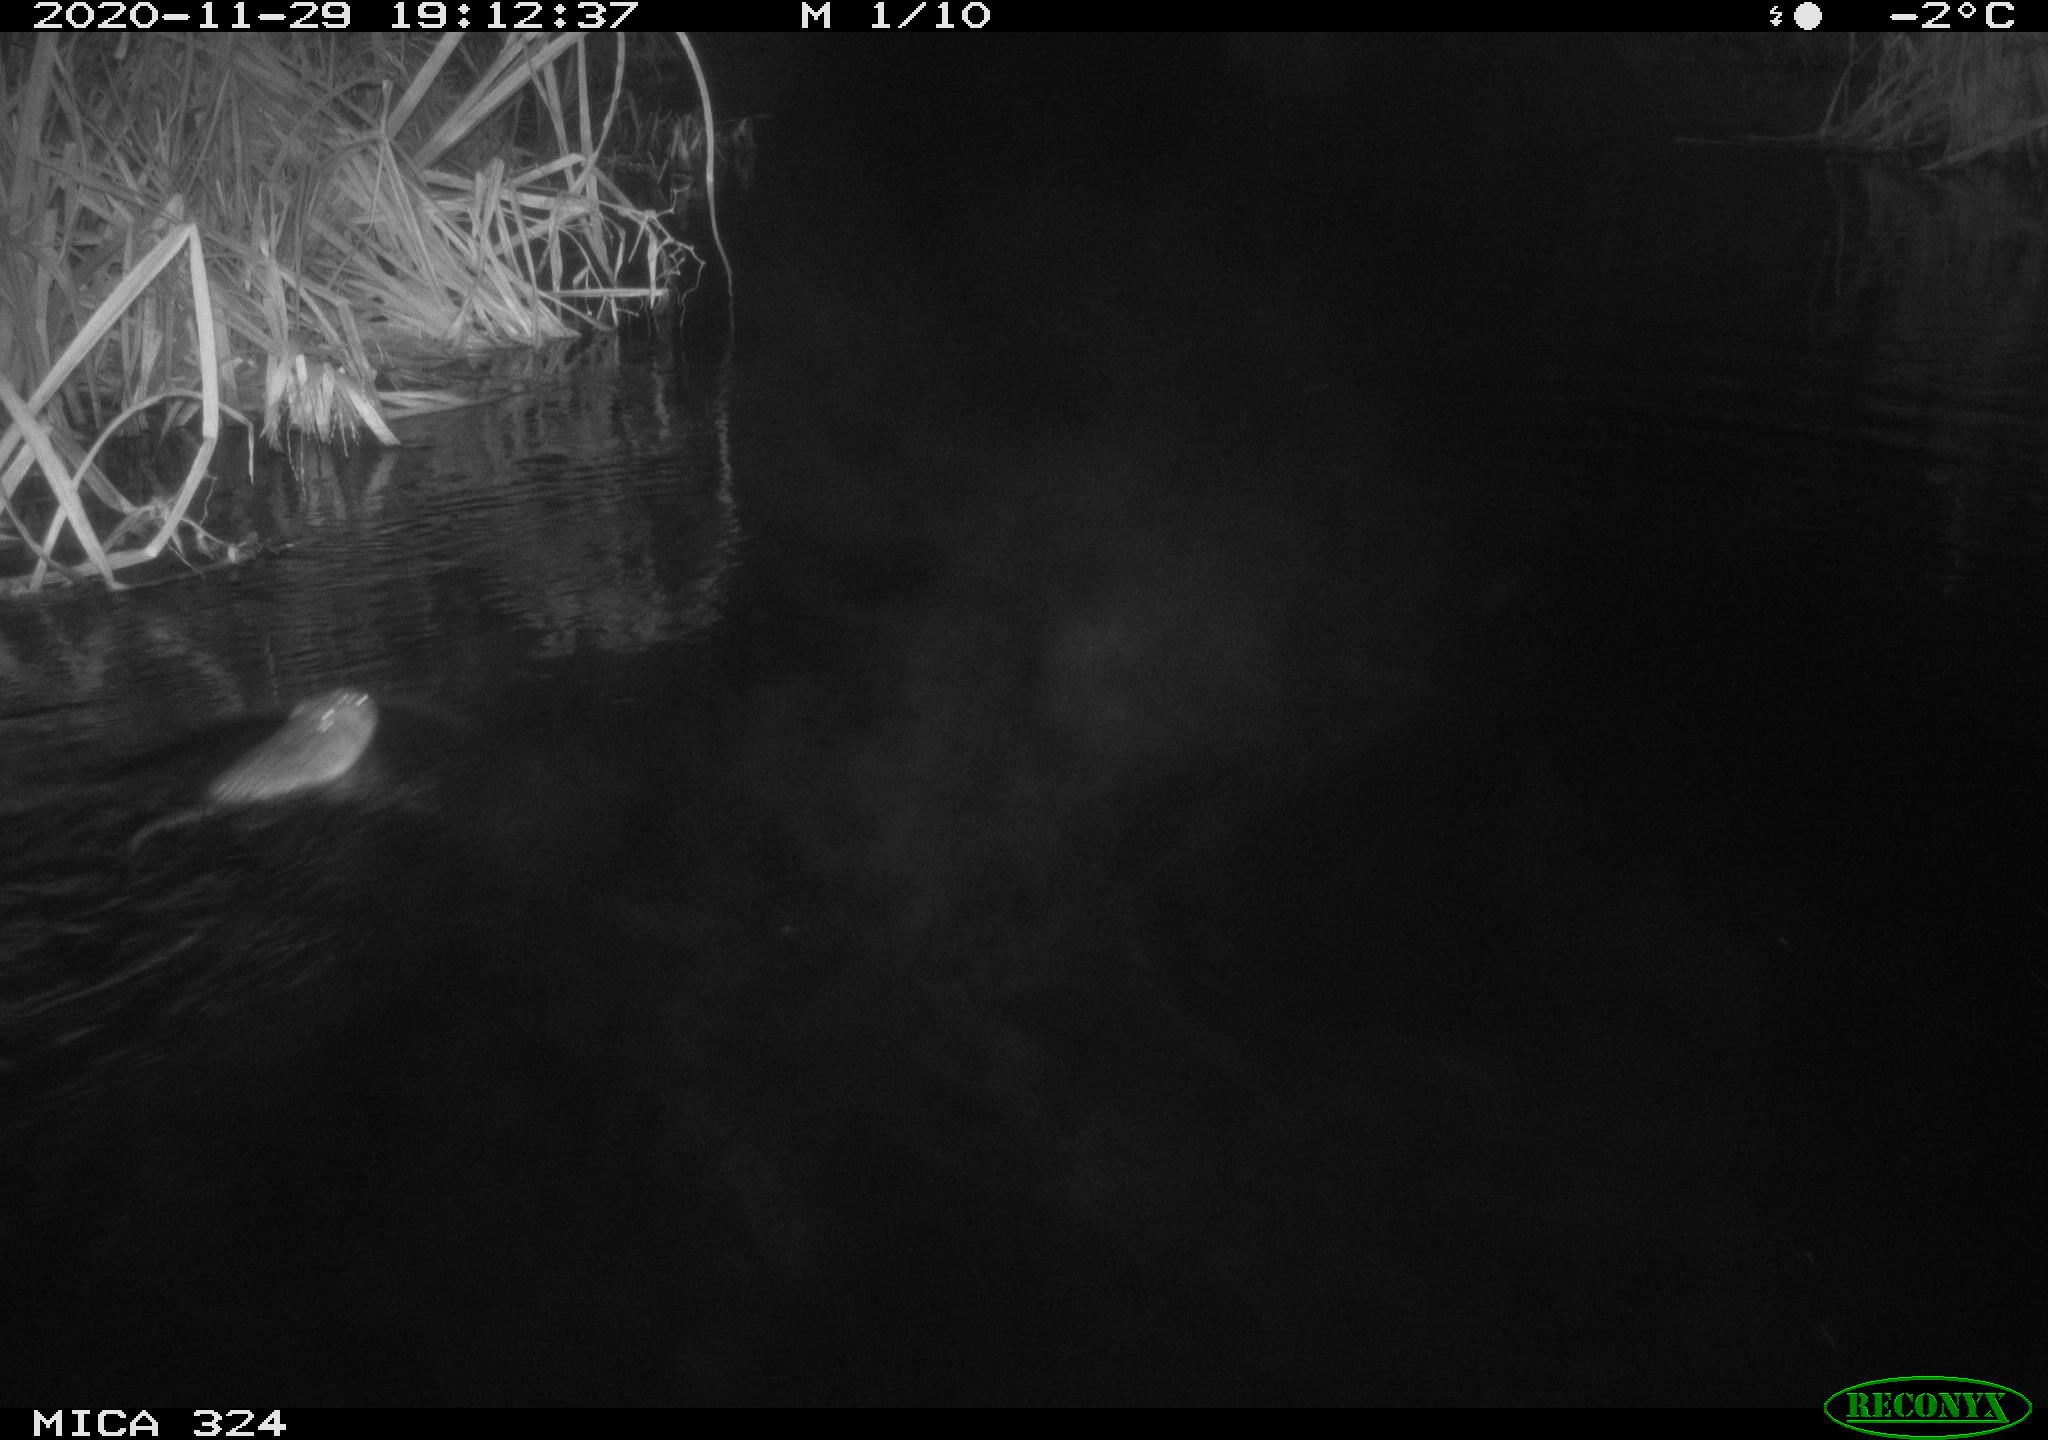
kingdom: Animalia
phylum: Chordata
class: Mammalia
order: Rodentia
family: Cricetidae
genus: Ondatra
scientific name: Ondatra zibethicus
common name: Muskrat
